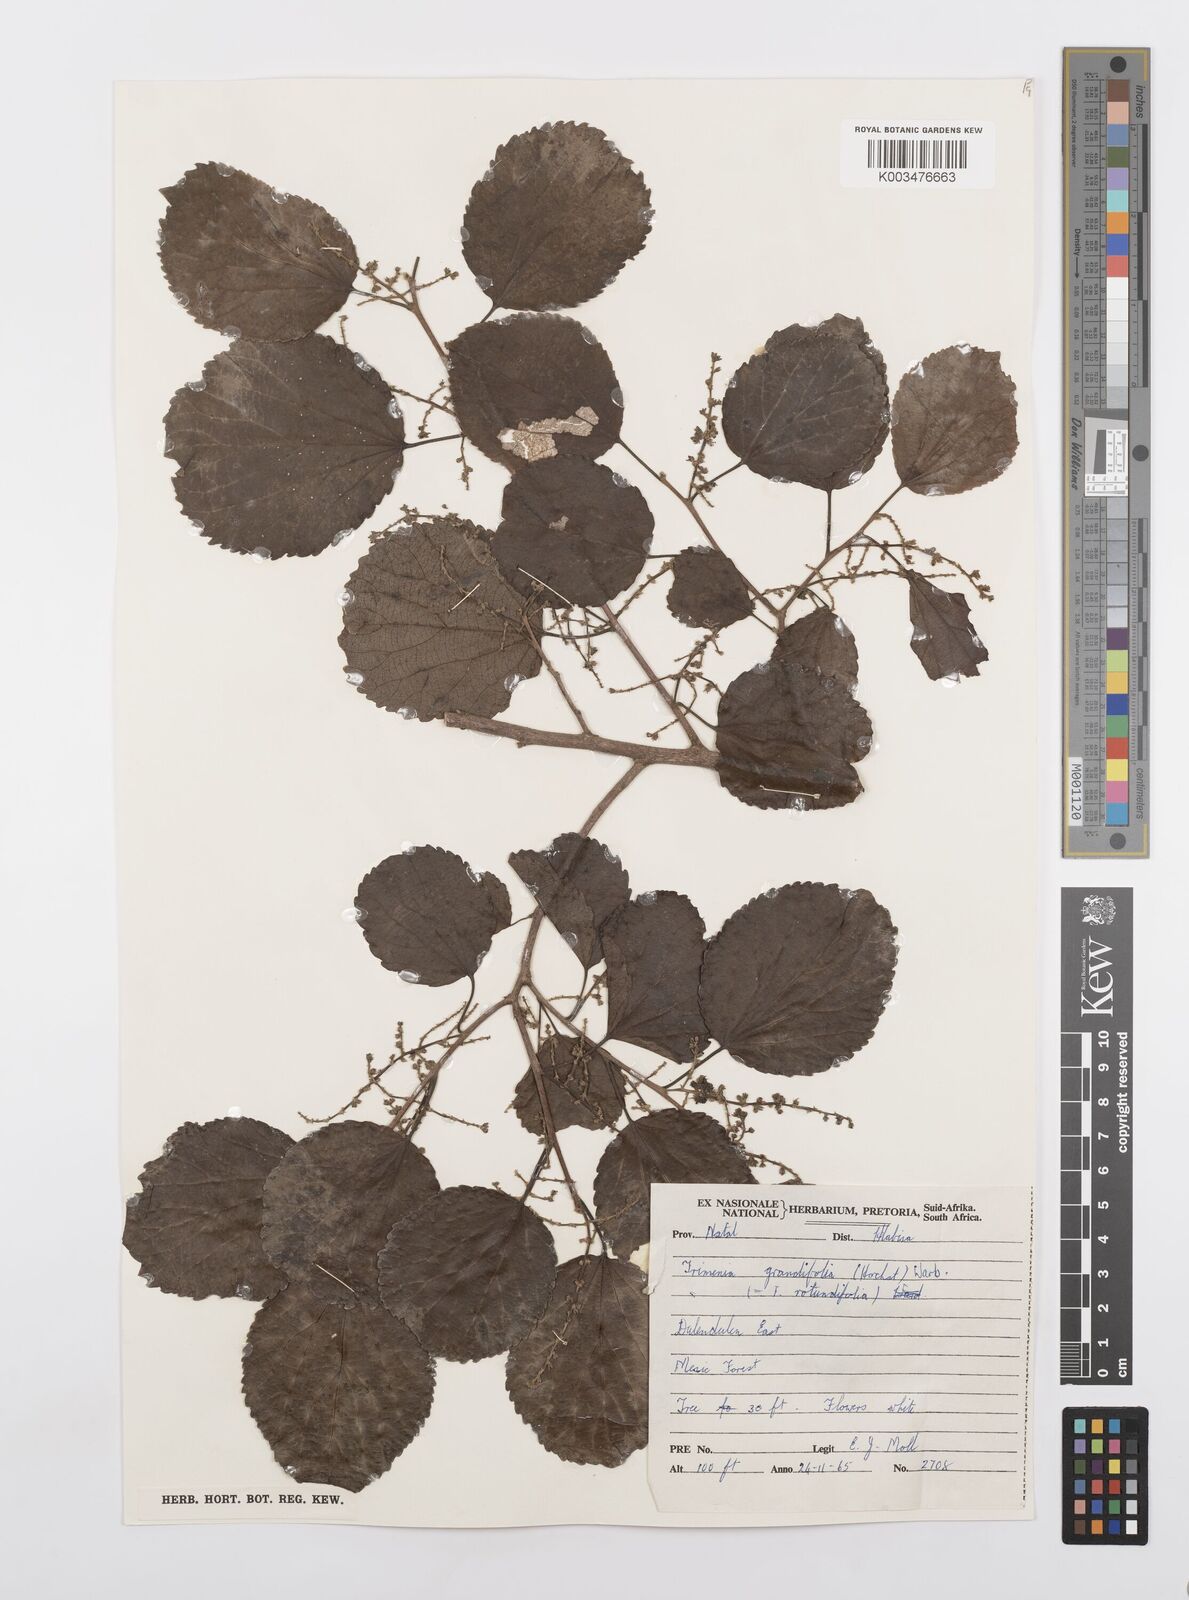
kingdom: Plantae
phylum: Tracheophyta
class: Magnoliopsida
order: Malpighiales
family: Salicaceae
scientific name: Salicaceae
